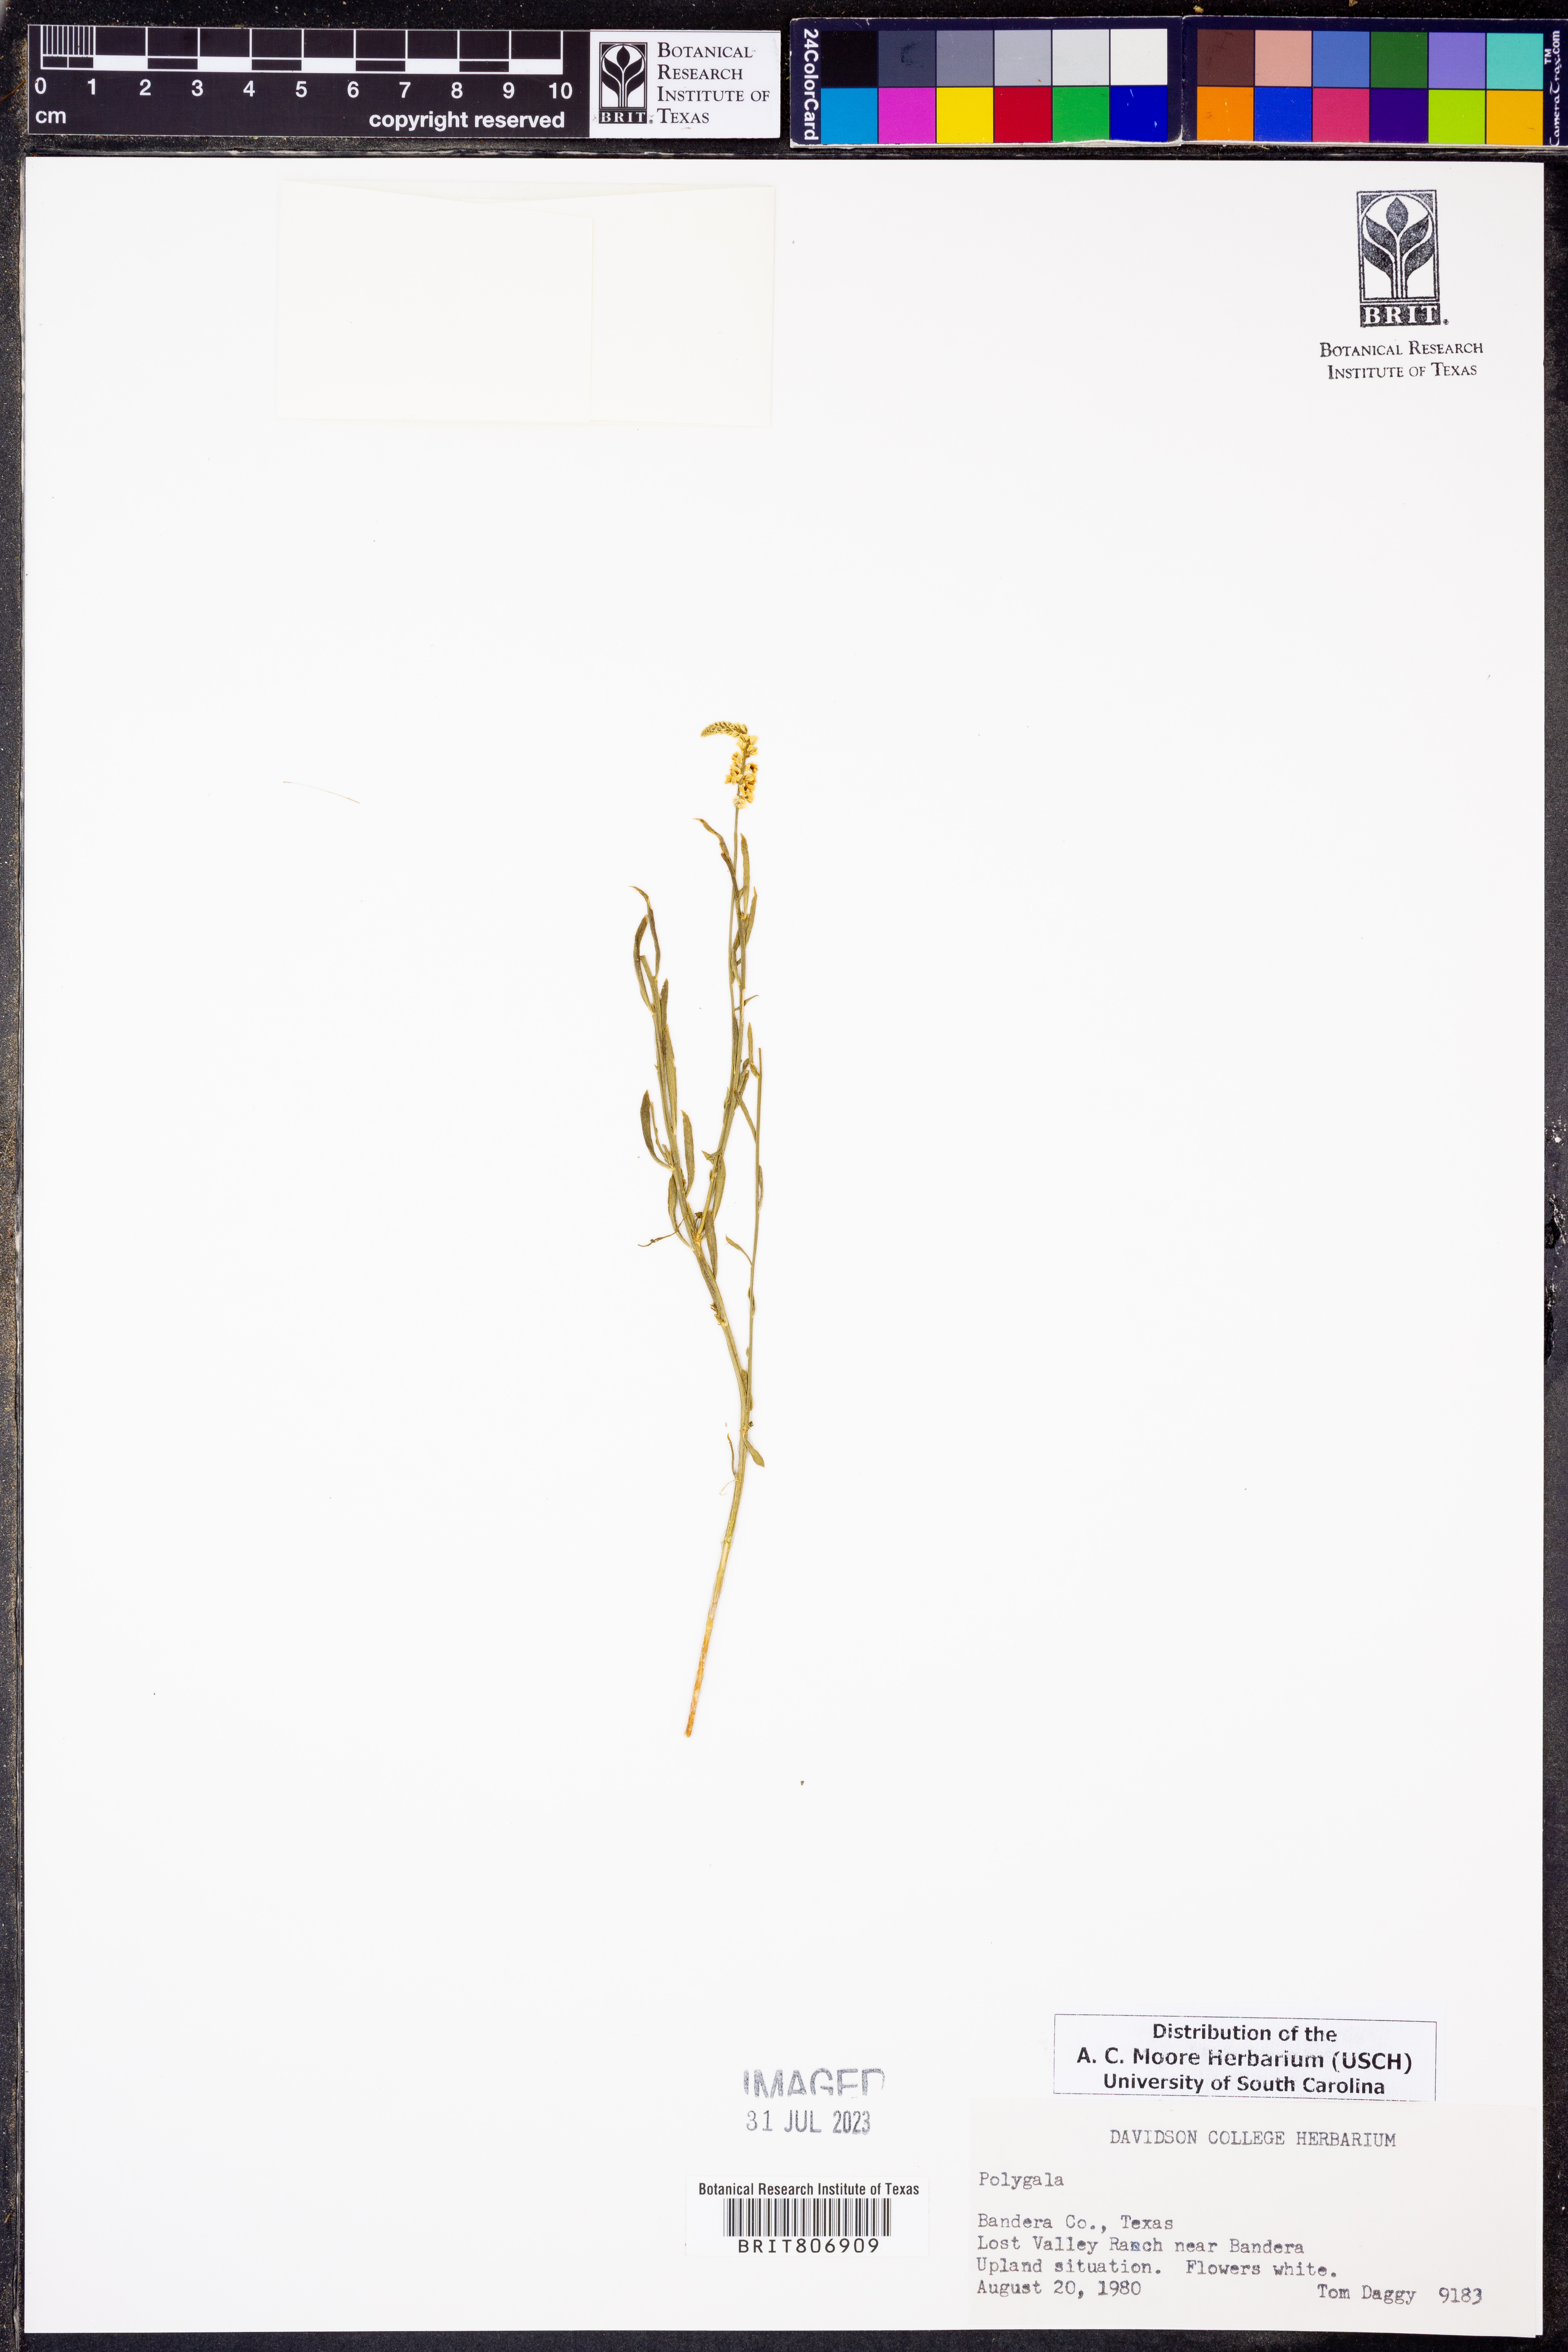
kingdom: Plantae
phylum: Tracheophyta
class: Magnoliopsida
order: Fabales
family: Polygalaceae
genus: Polygala
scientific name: Polygala
